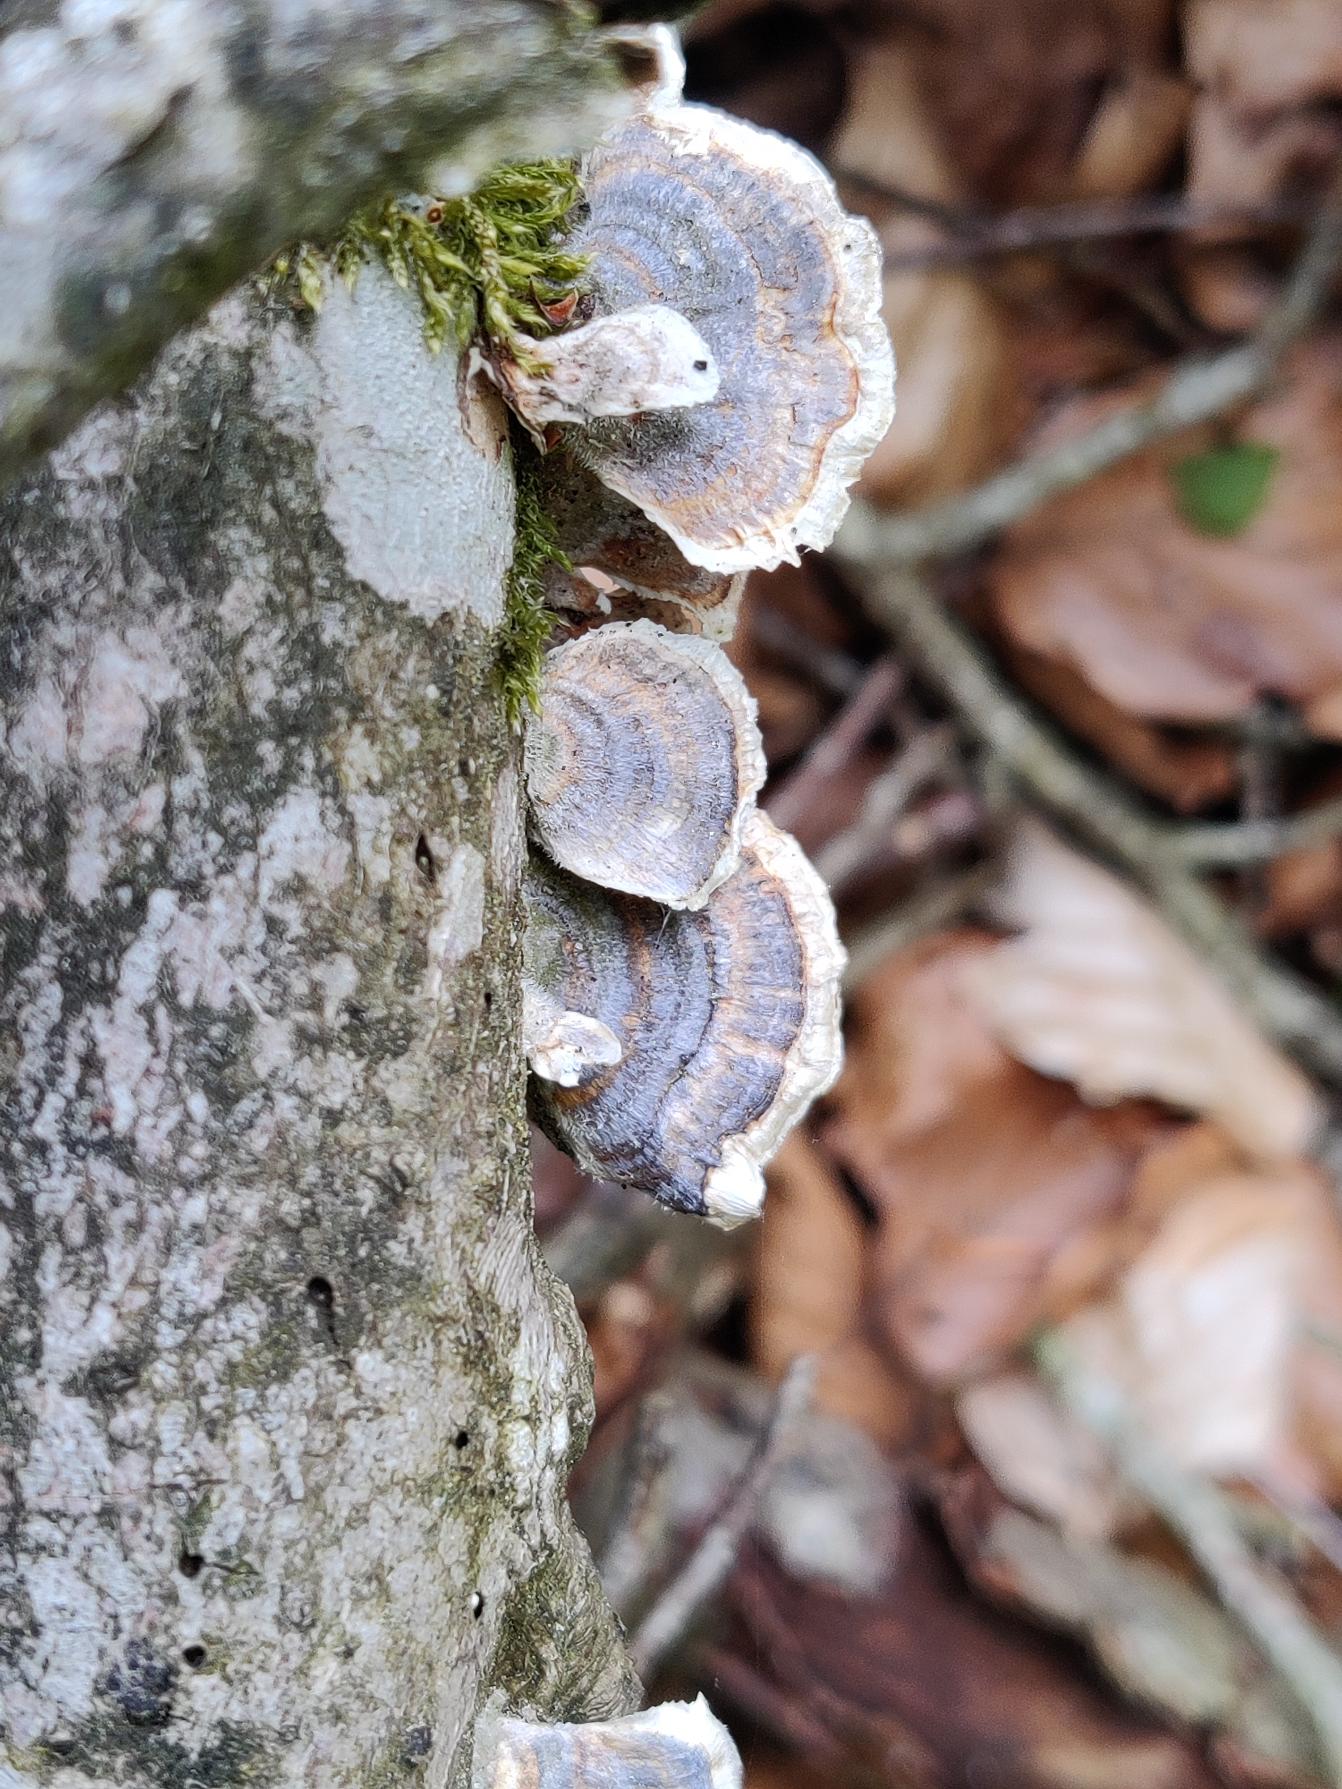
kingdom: Fungi
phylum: Basidiomycota
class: Agaricomycetes
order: Polyporales
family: Polyporaceae
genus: Trametes
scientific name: Trametes versicolor
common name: Broget læderporesvamp
